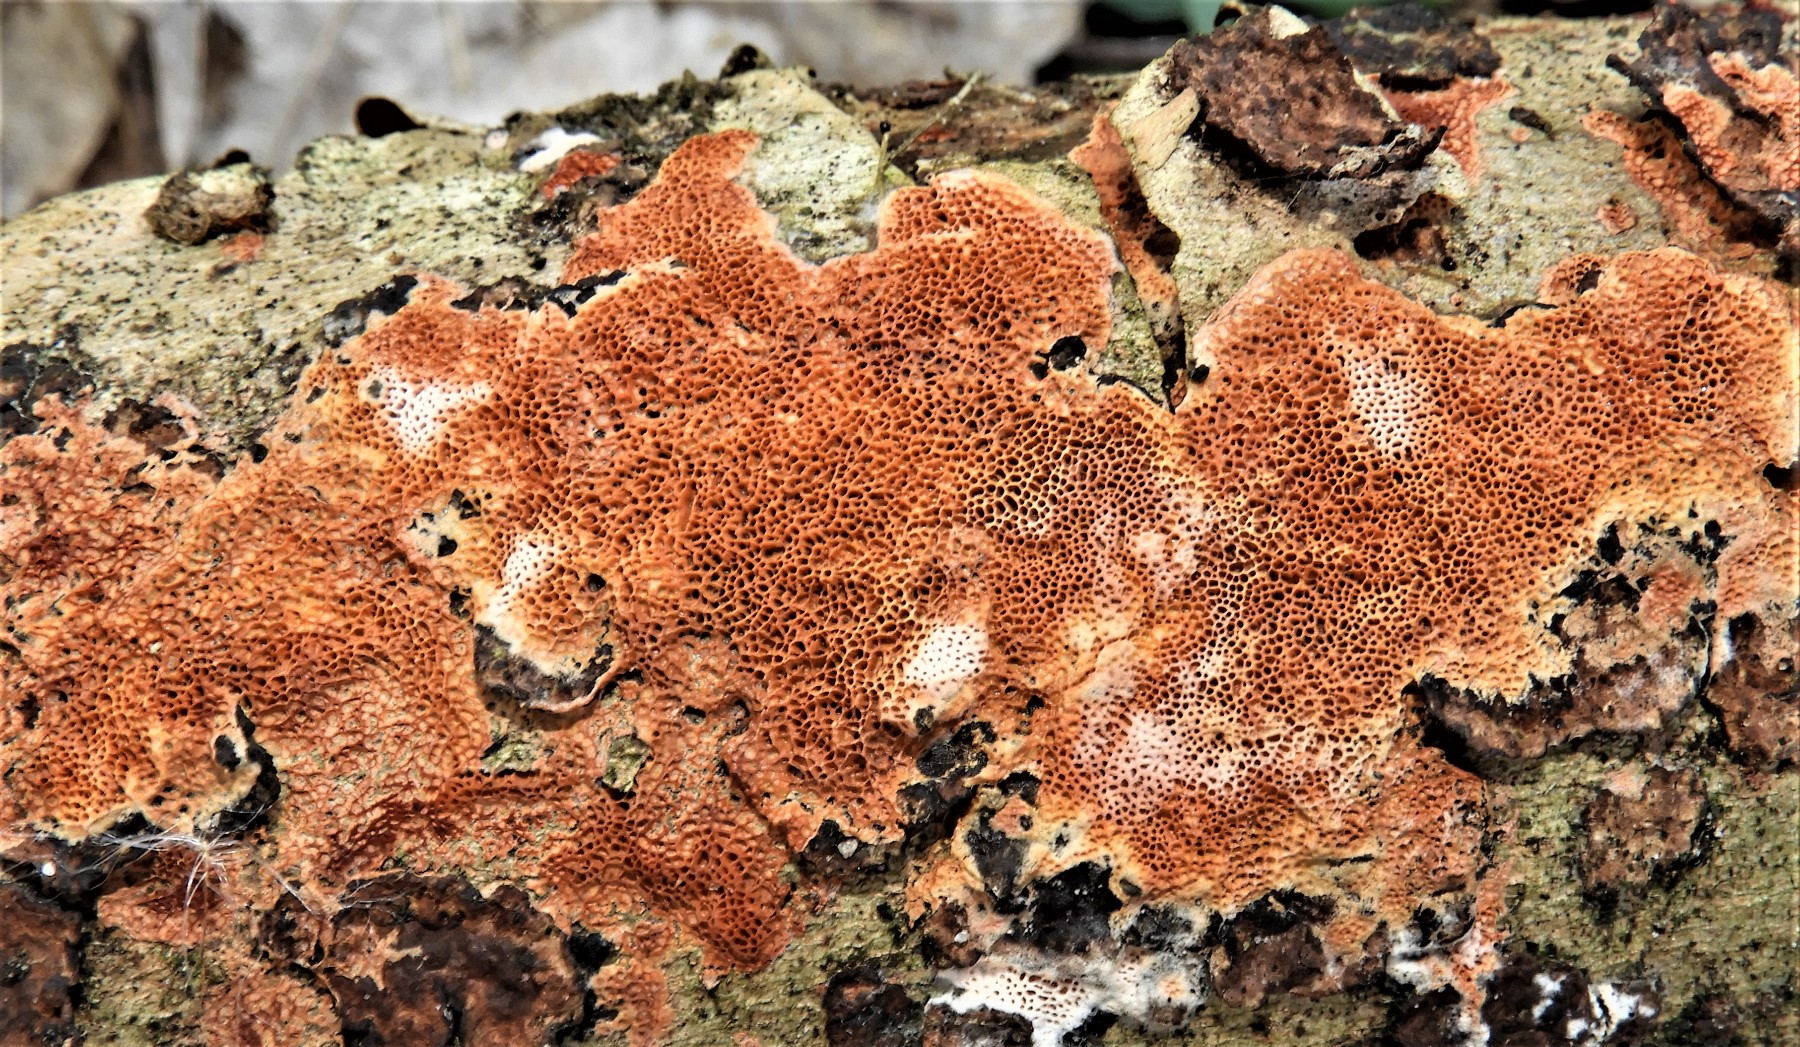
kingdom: Fungi
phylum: Basidiomycota
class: Agaricomycetes
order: Polyporales
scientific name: Polyporales
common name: poresvampordenen
